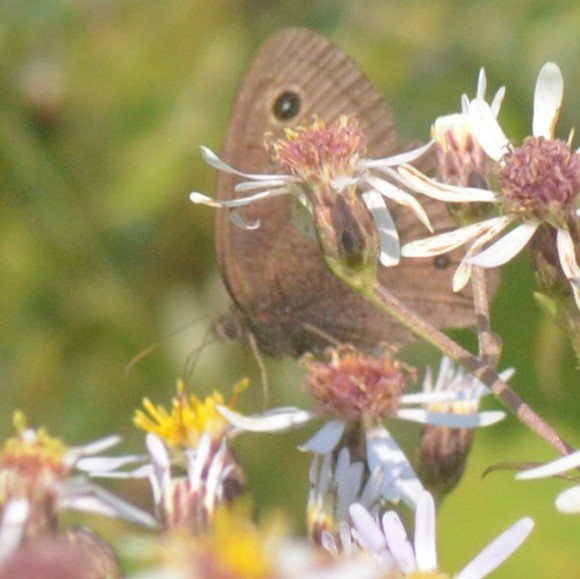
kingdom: Animalia
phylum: Arthropoda
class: Insecta
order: Lepidoptera
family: Nymphalidae
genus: Cercyonis
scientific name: Cercyonis pegala
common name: Common Wood-Nymph
